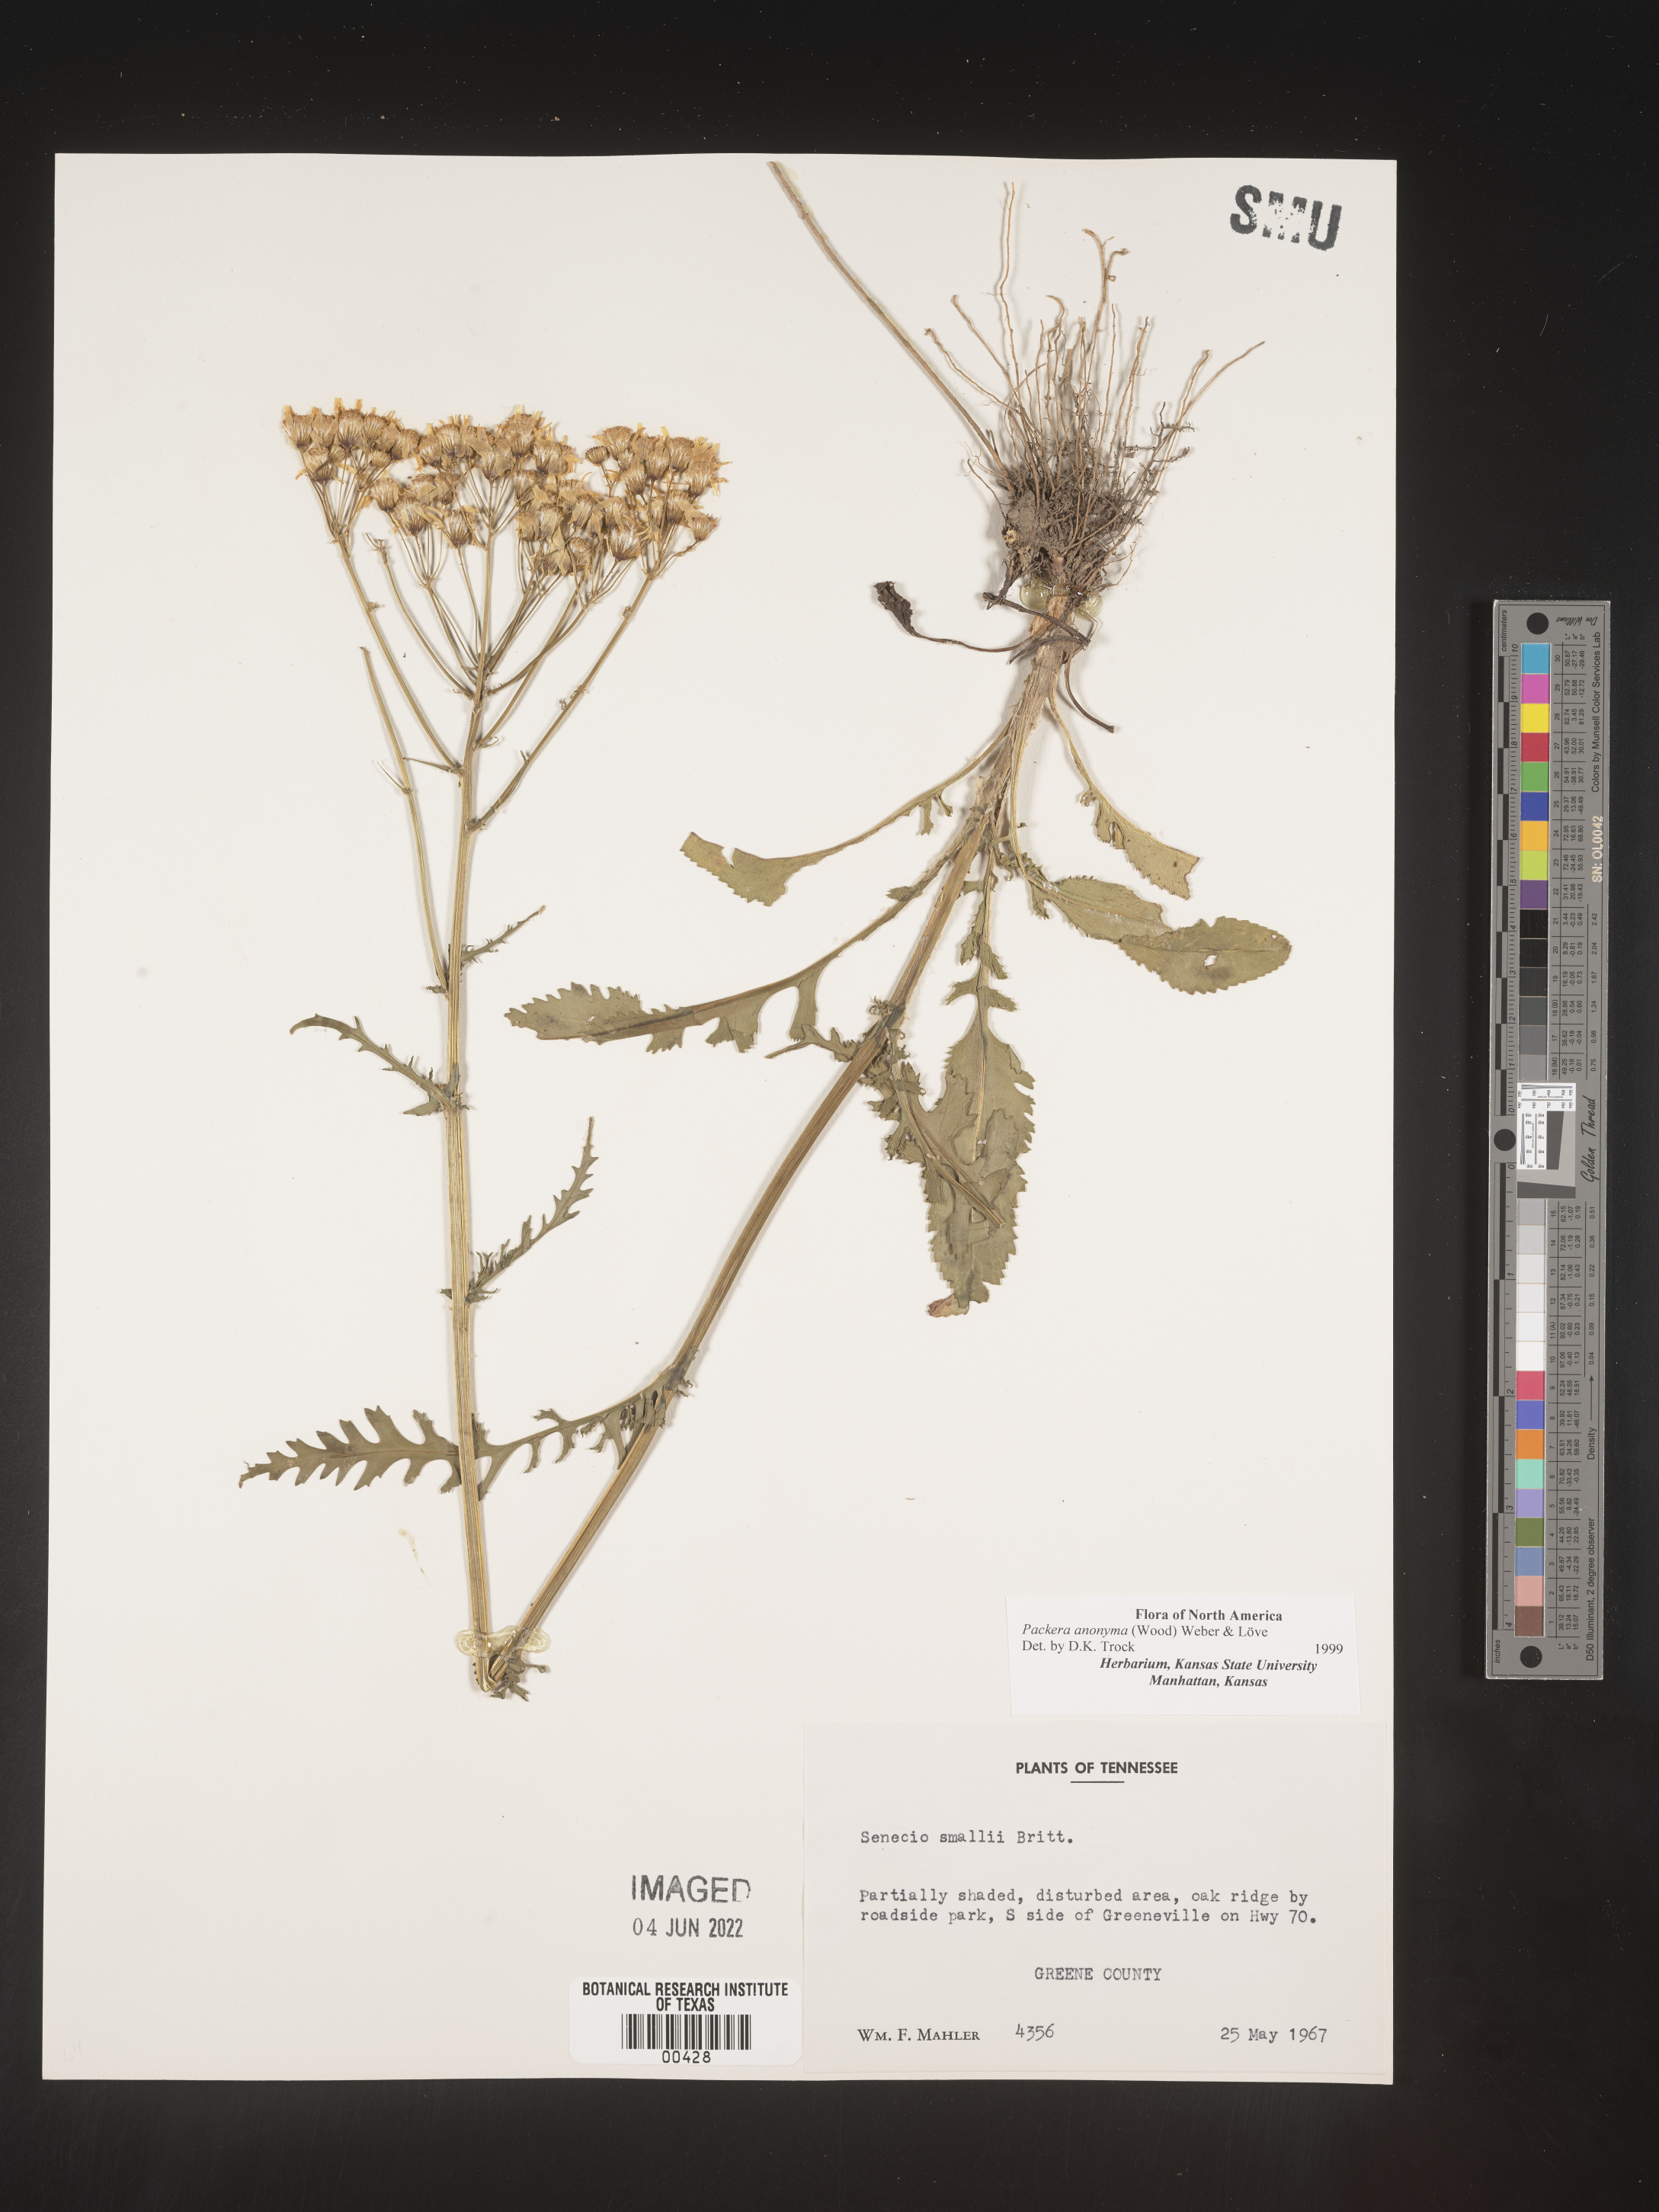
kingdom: Plantae
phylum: Tracheophyta
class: Magnoliopsida
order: Asterales
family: Asteraceae
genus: Packera
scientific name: Packera anonyma
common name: Small ragwort
